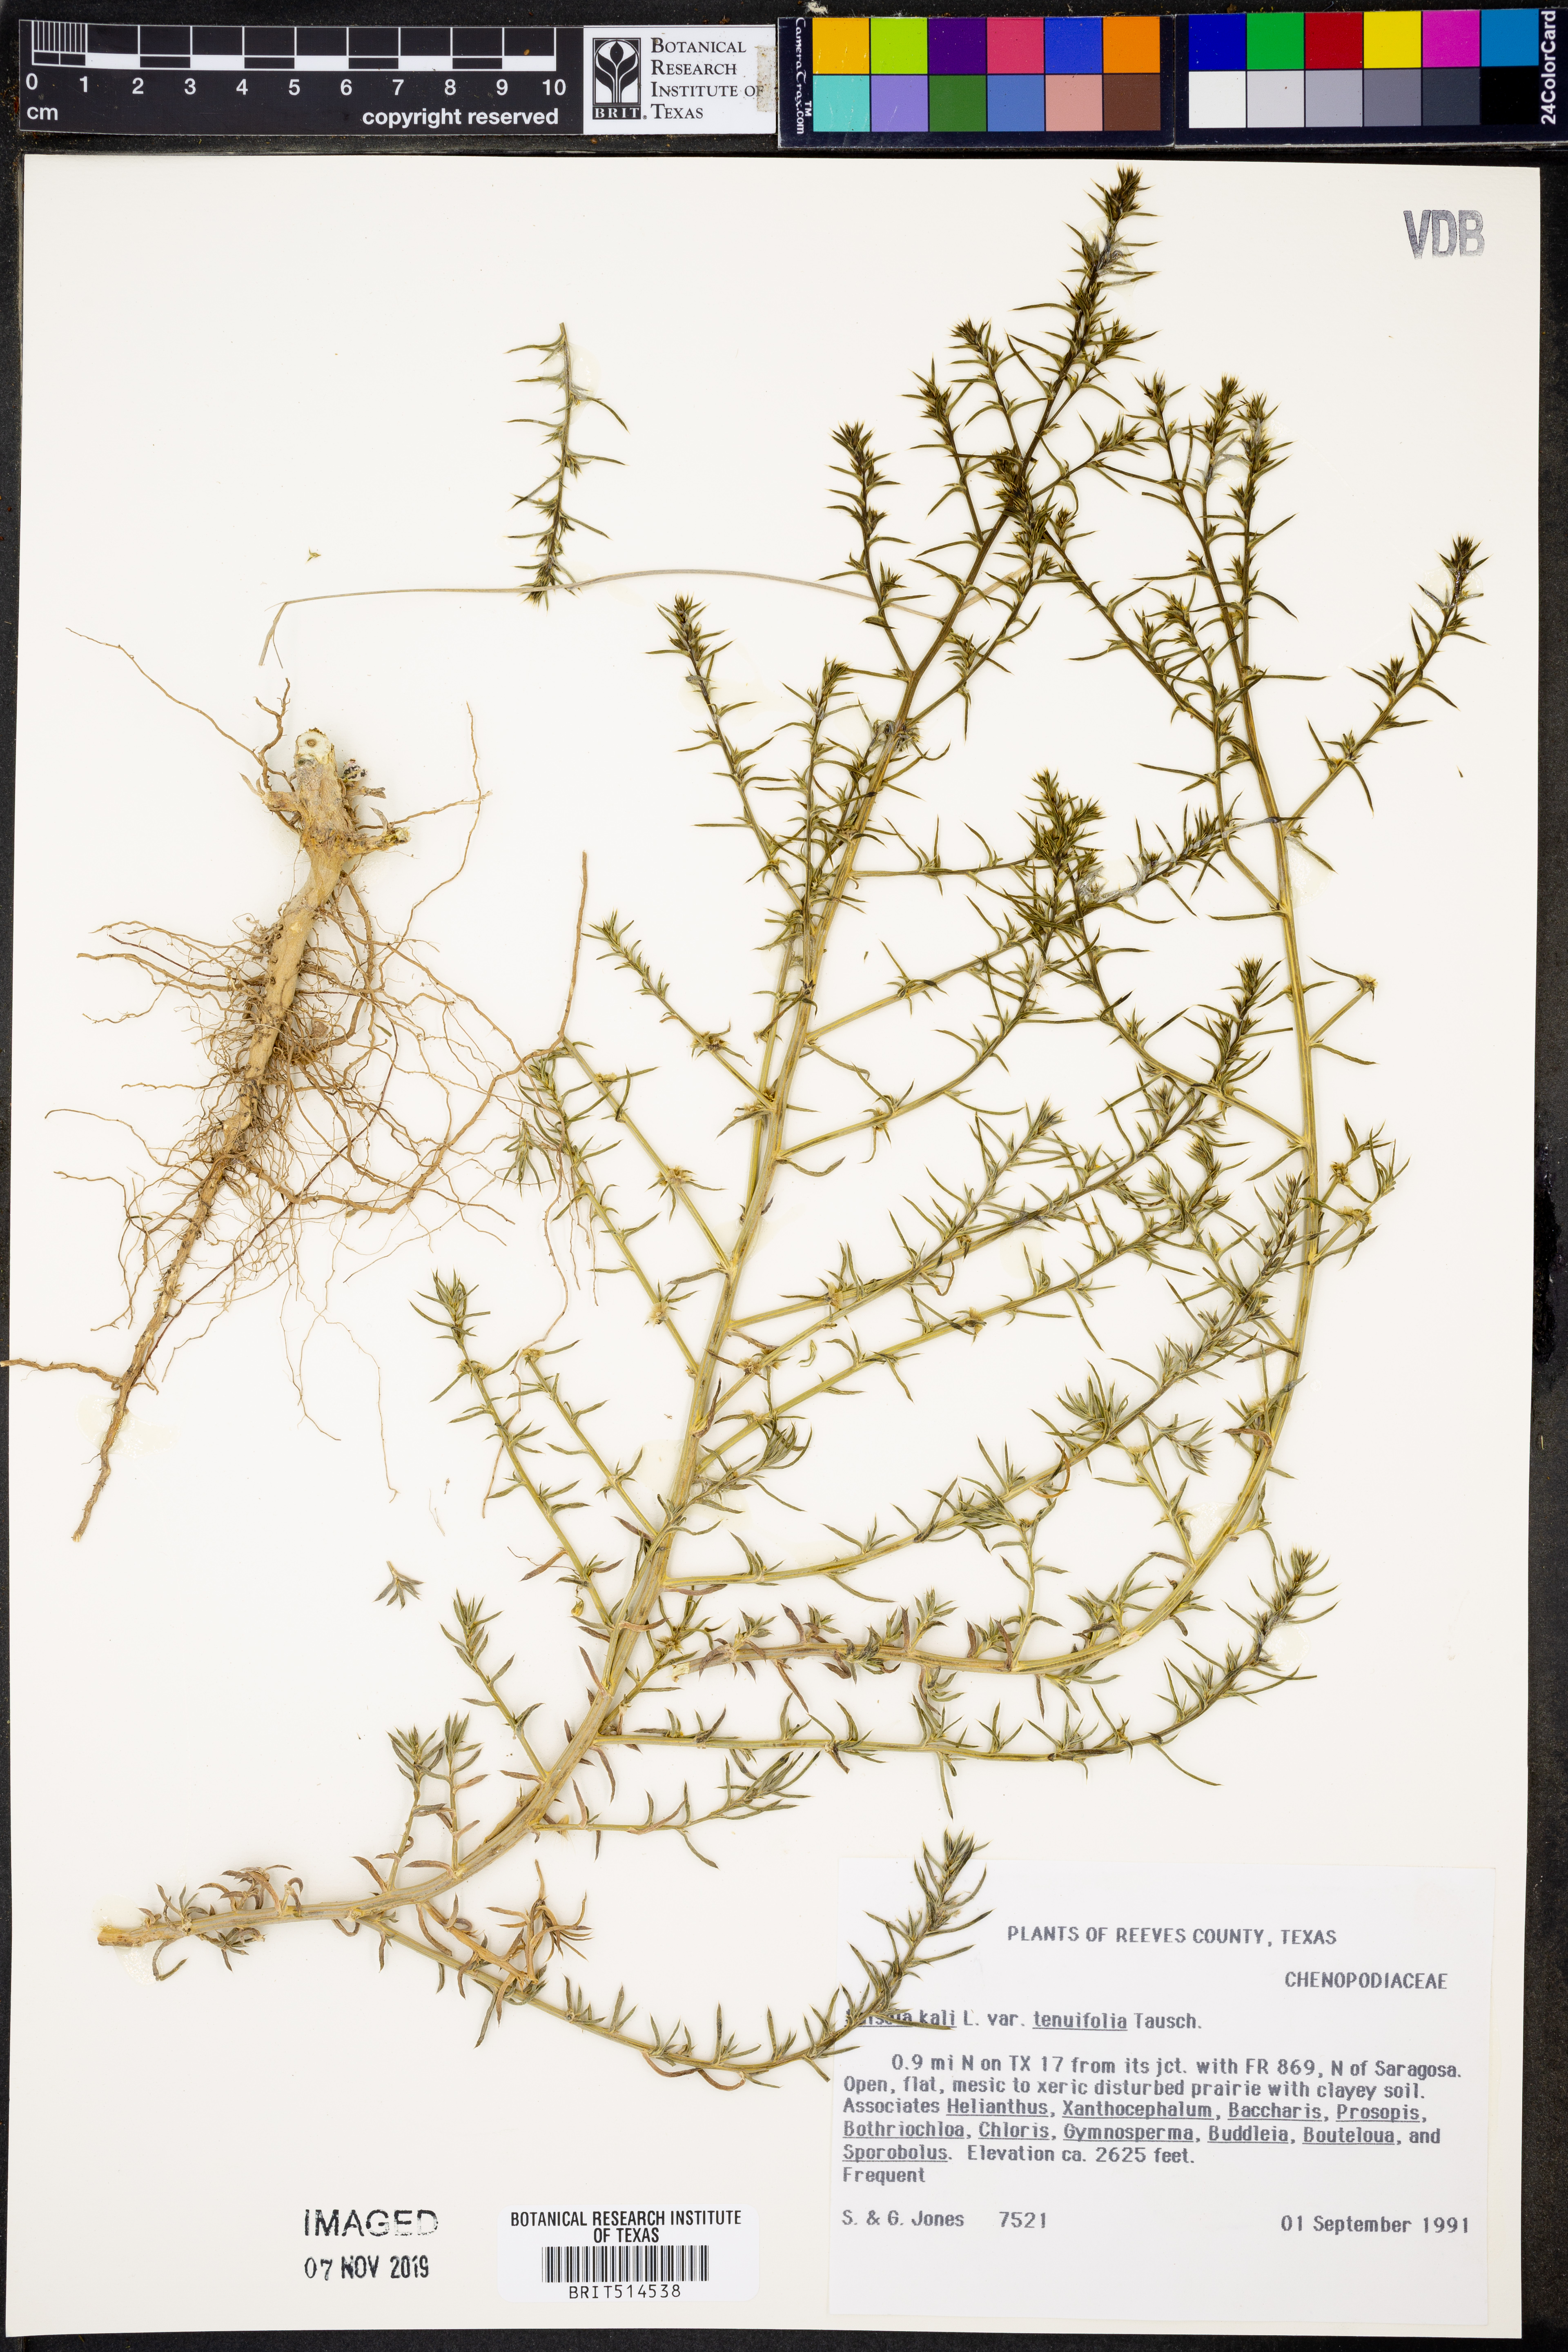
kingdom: Plantae
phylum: Tracheophyta
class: Magnoliopsida
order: Caryophyllales
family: Amaranthaceae
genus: Salsola
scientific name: Salsola tragus
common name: Prickly russian thistle
